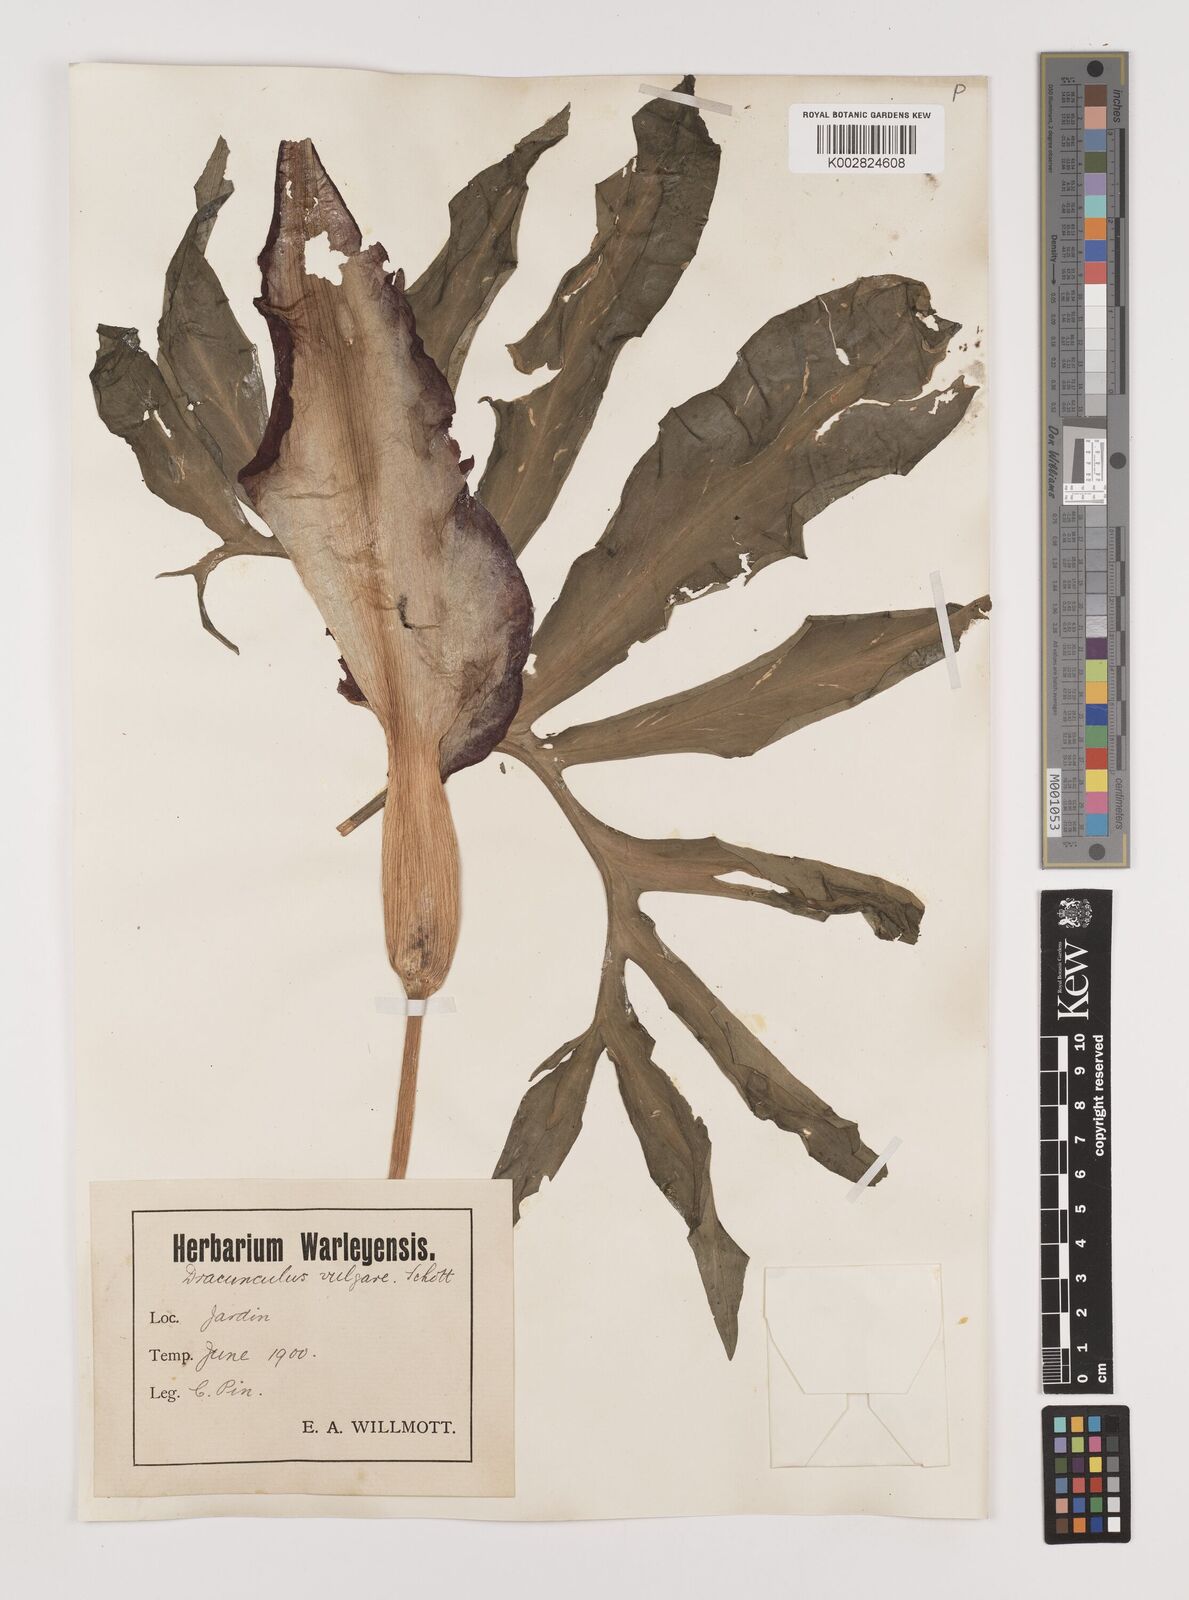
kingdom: Plantae
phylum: Tracheophyta
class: Liliopsida
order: Alismatales
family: Araceae
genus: Dracunculus
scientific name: Dracunculus vulgaris
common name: Dragon arum
